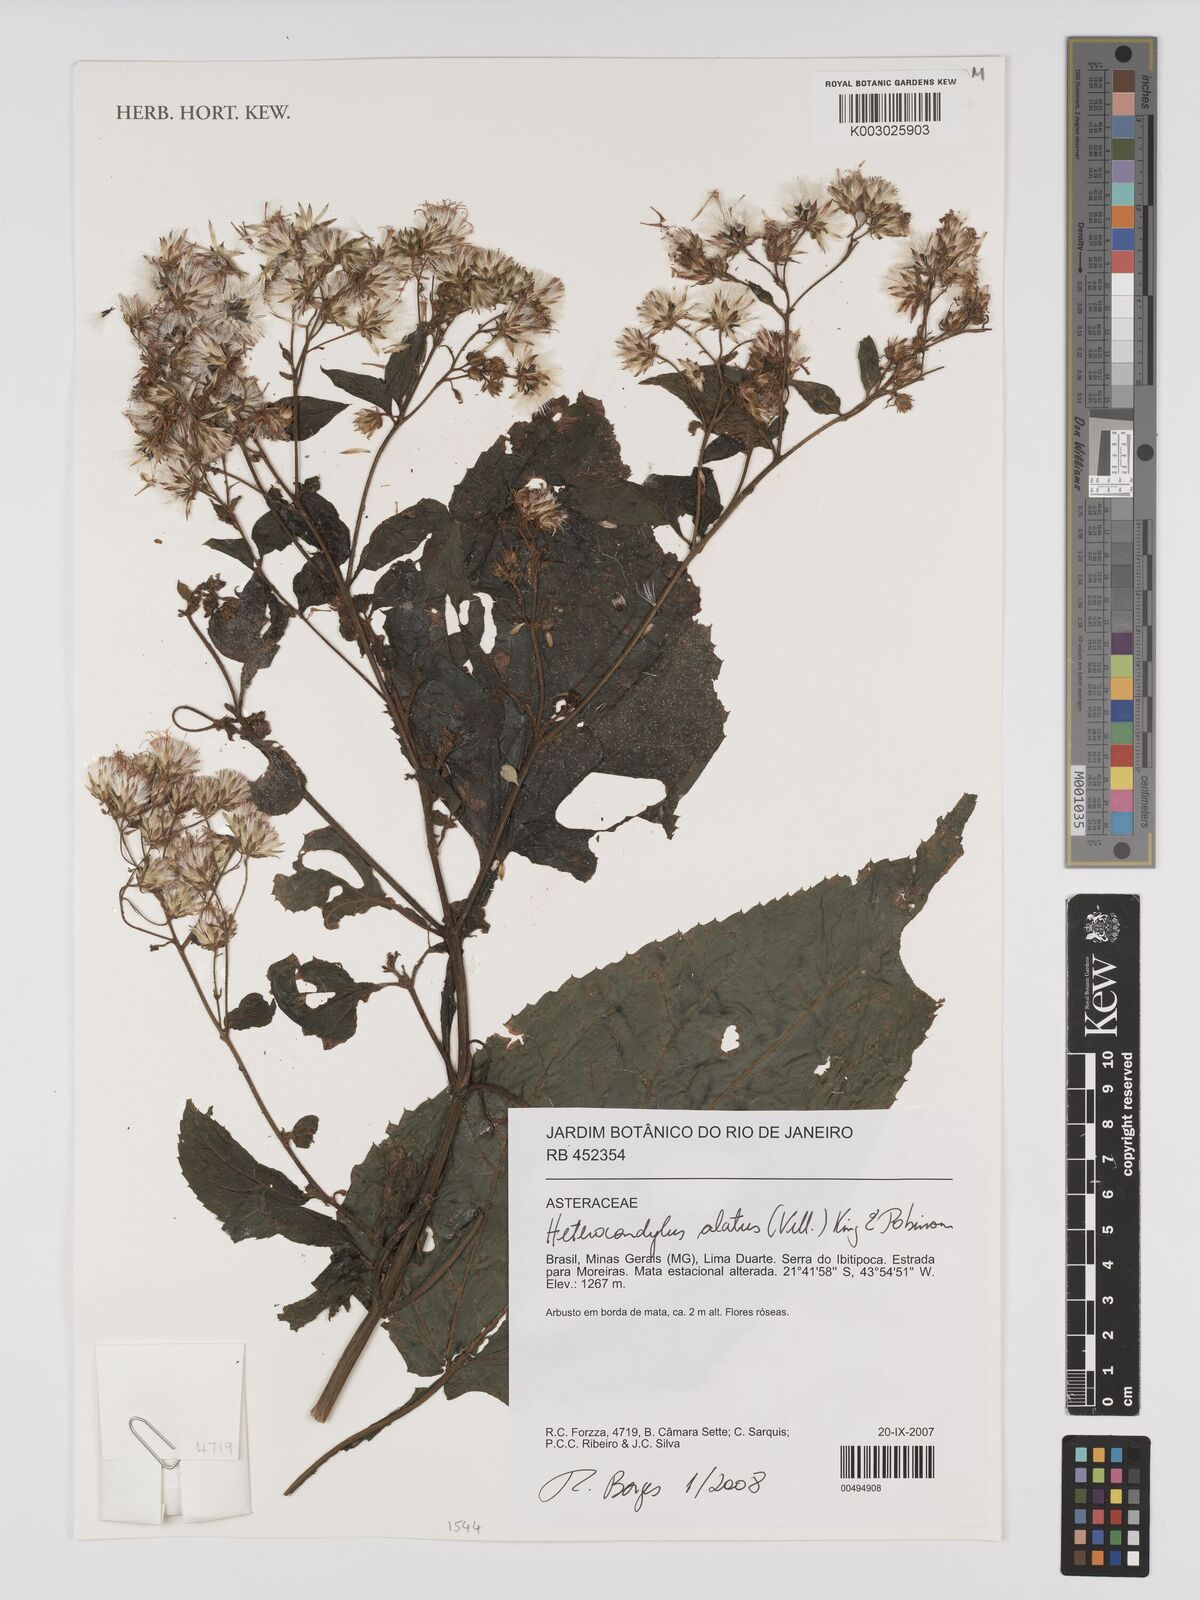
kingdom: Plantae
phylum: Tracheophyta
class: Magnoliopsida
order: Asterales
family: Asteraceae
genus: Heterocondylus
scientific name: Heterocondylus alatus
